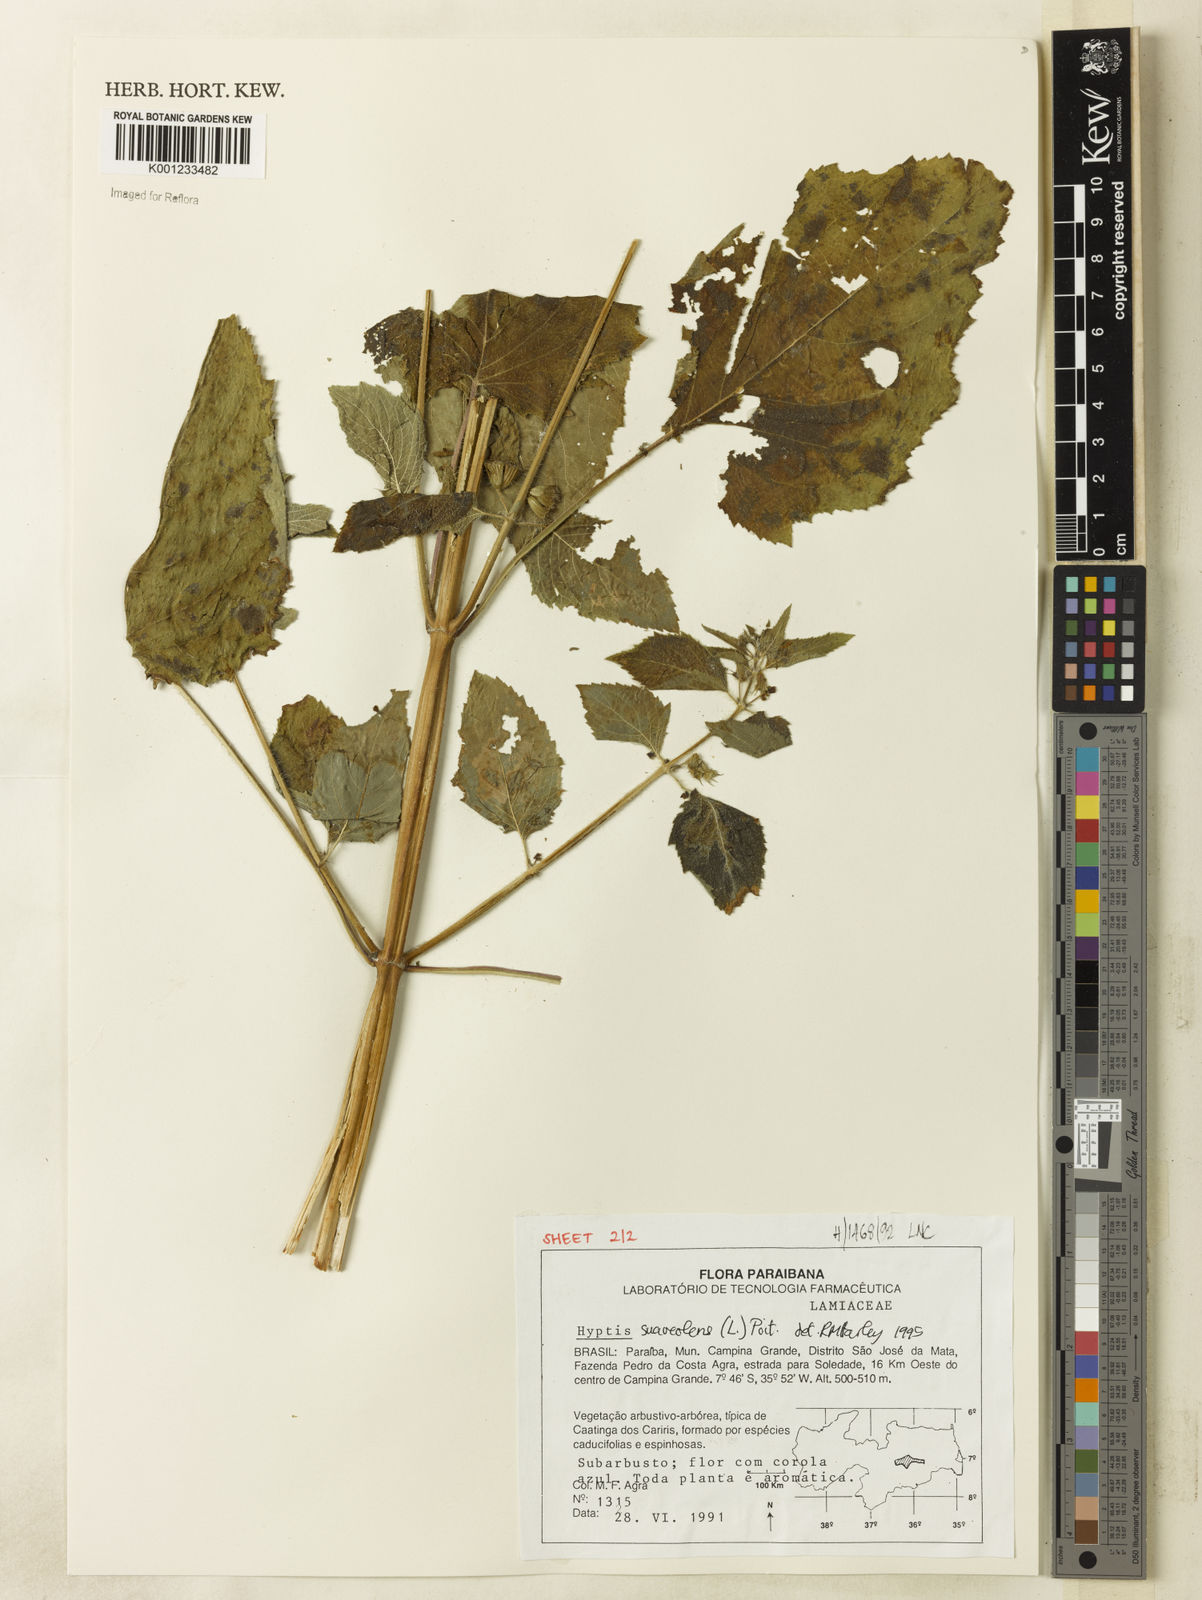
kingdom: Plantae
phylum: Tracheophyta
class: Magnoliopsida
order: Lamiales
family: Lamiaceae
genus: Mesosphaerum
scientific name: Mesosphaerum suaveolens
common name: Pignut
